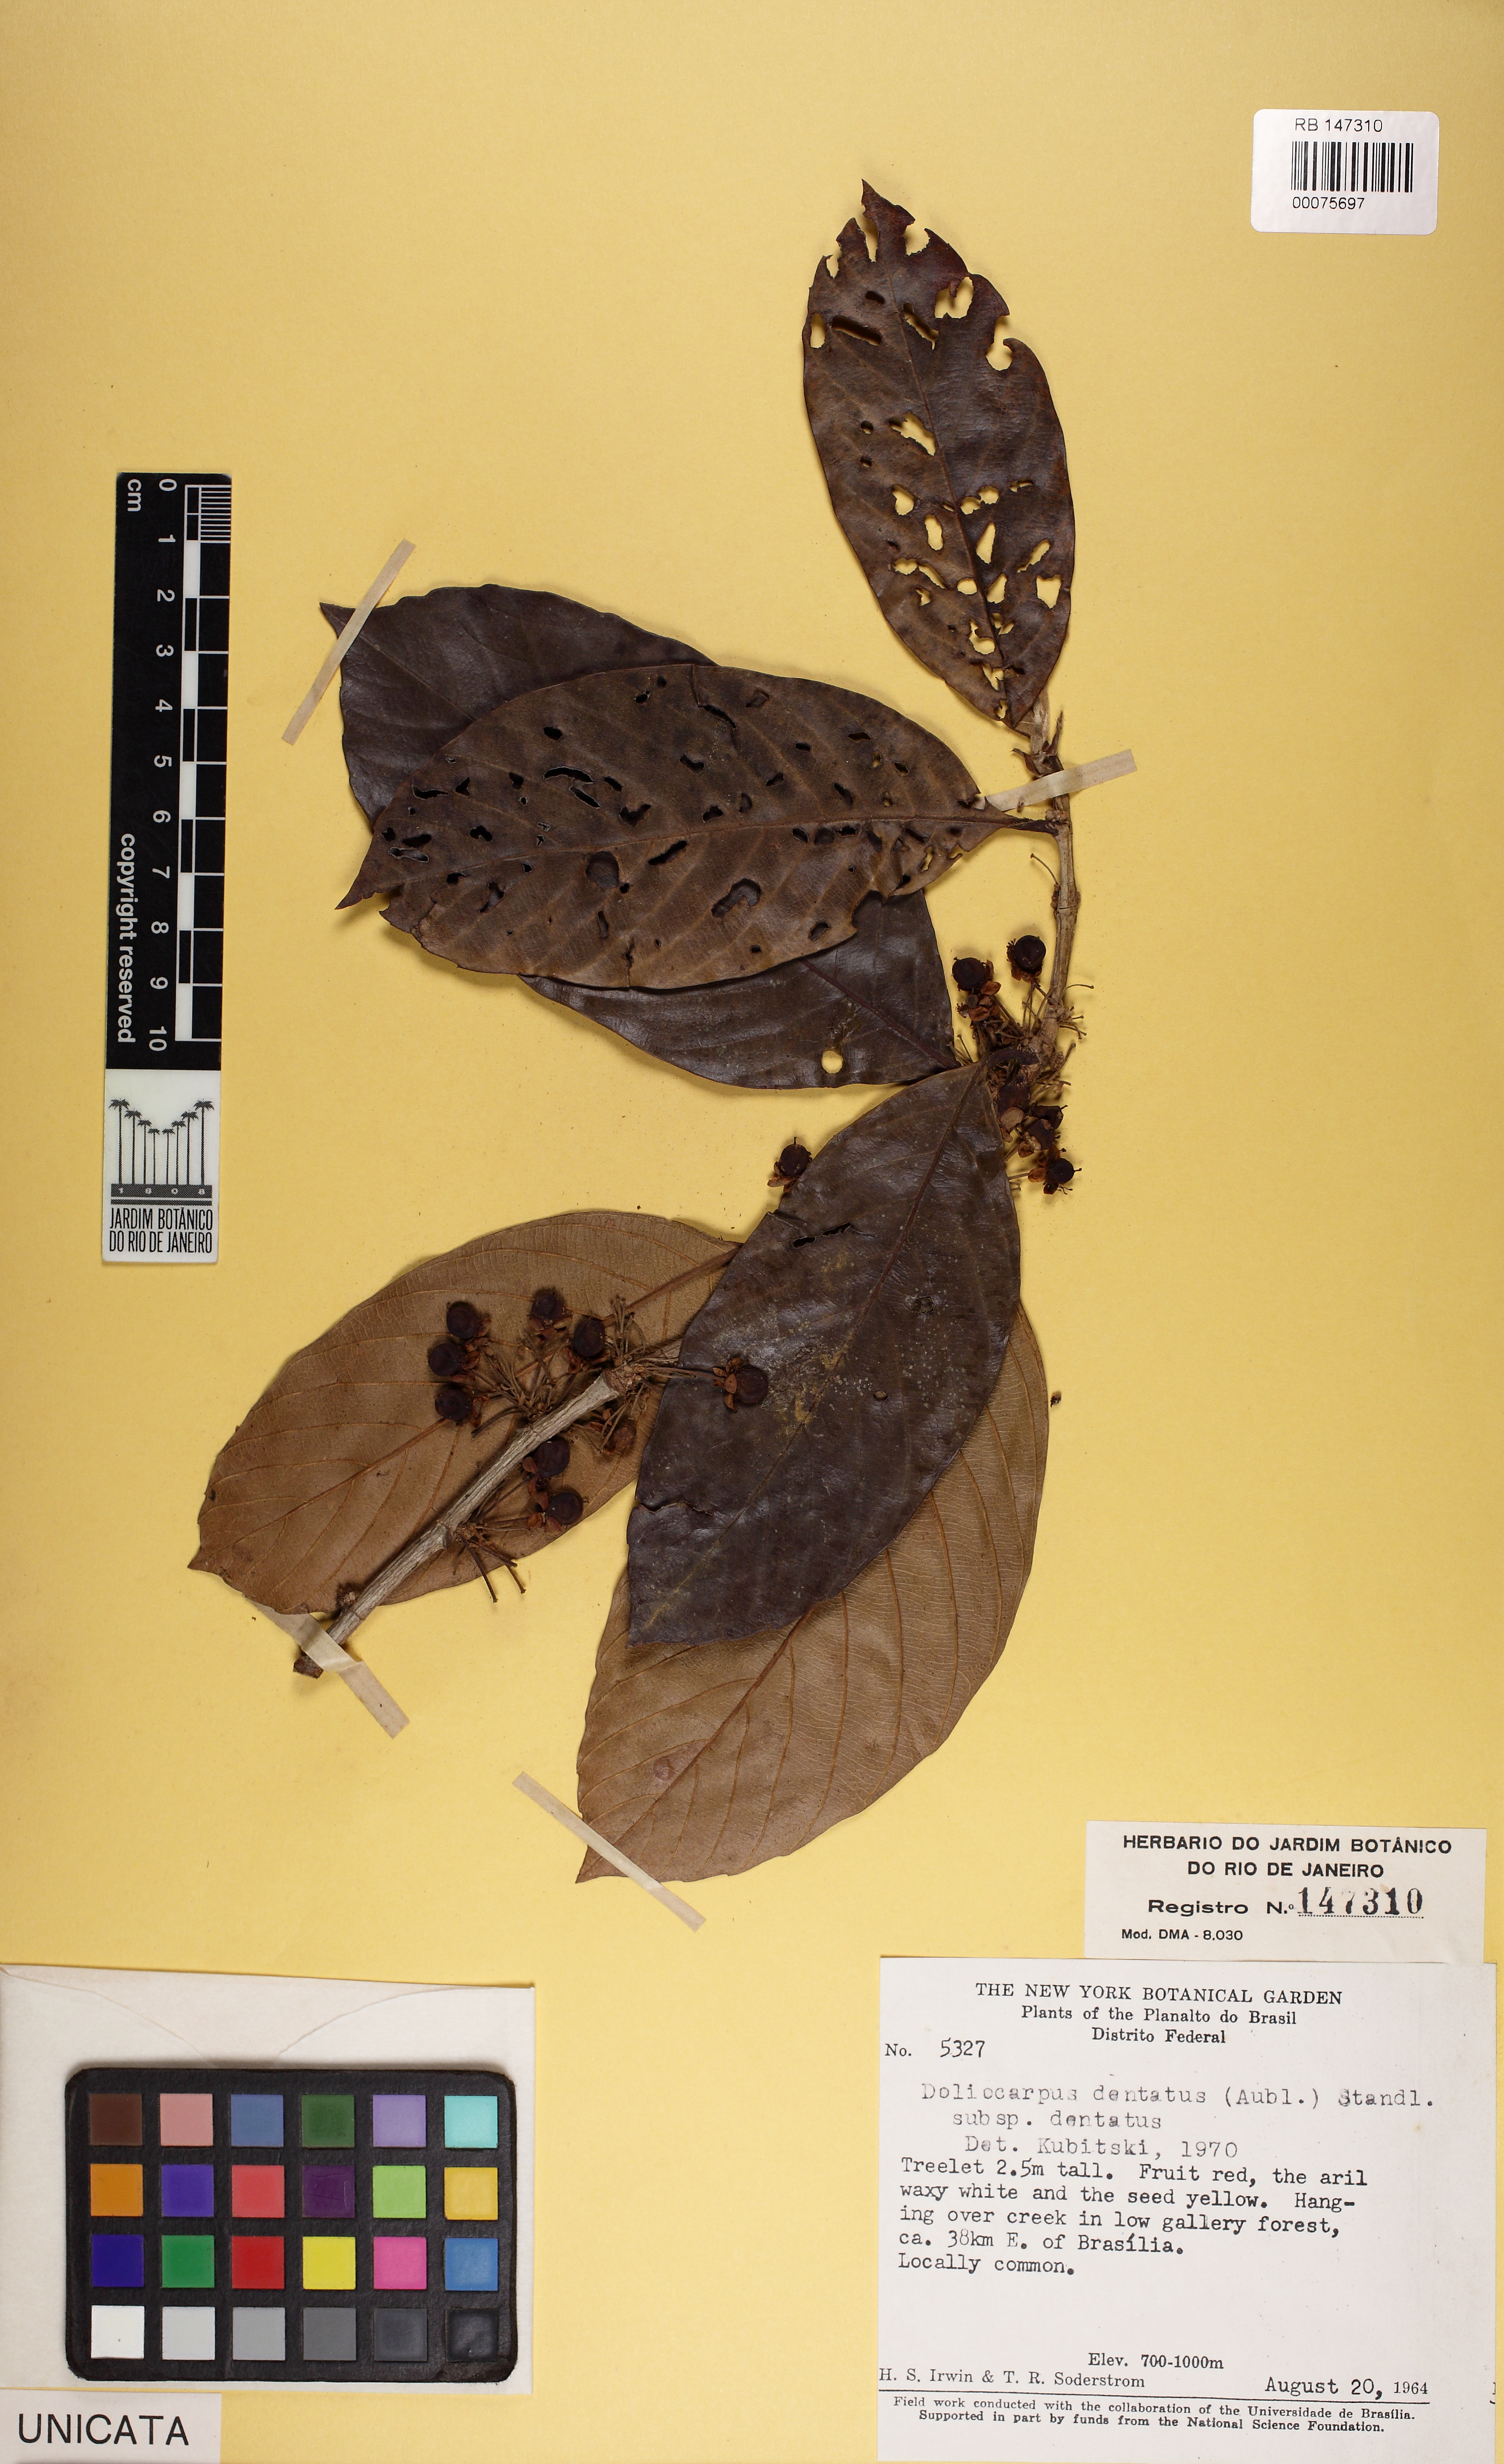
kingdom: Plantae
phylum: Tracheophyta
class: Magnoliopsida
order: Dilleniales
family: Dilleniaceae
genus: Doliocarpus
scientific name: Doliocarpus dentatus
